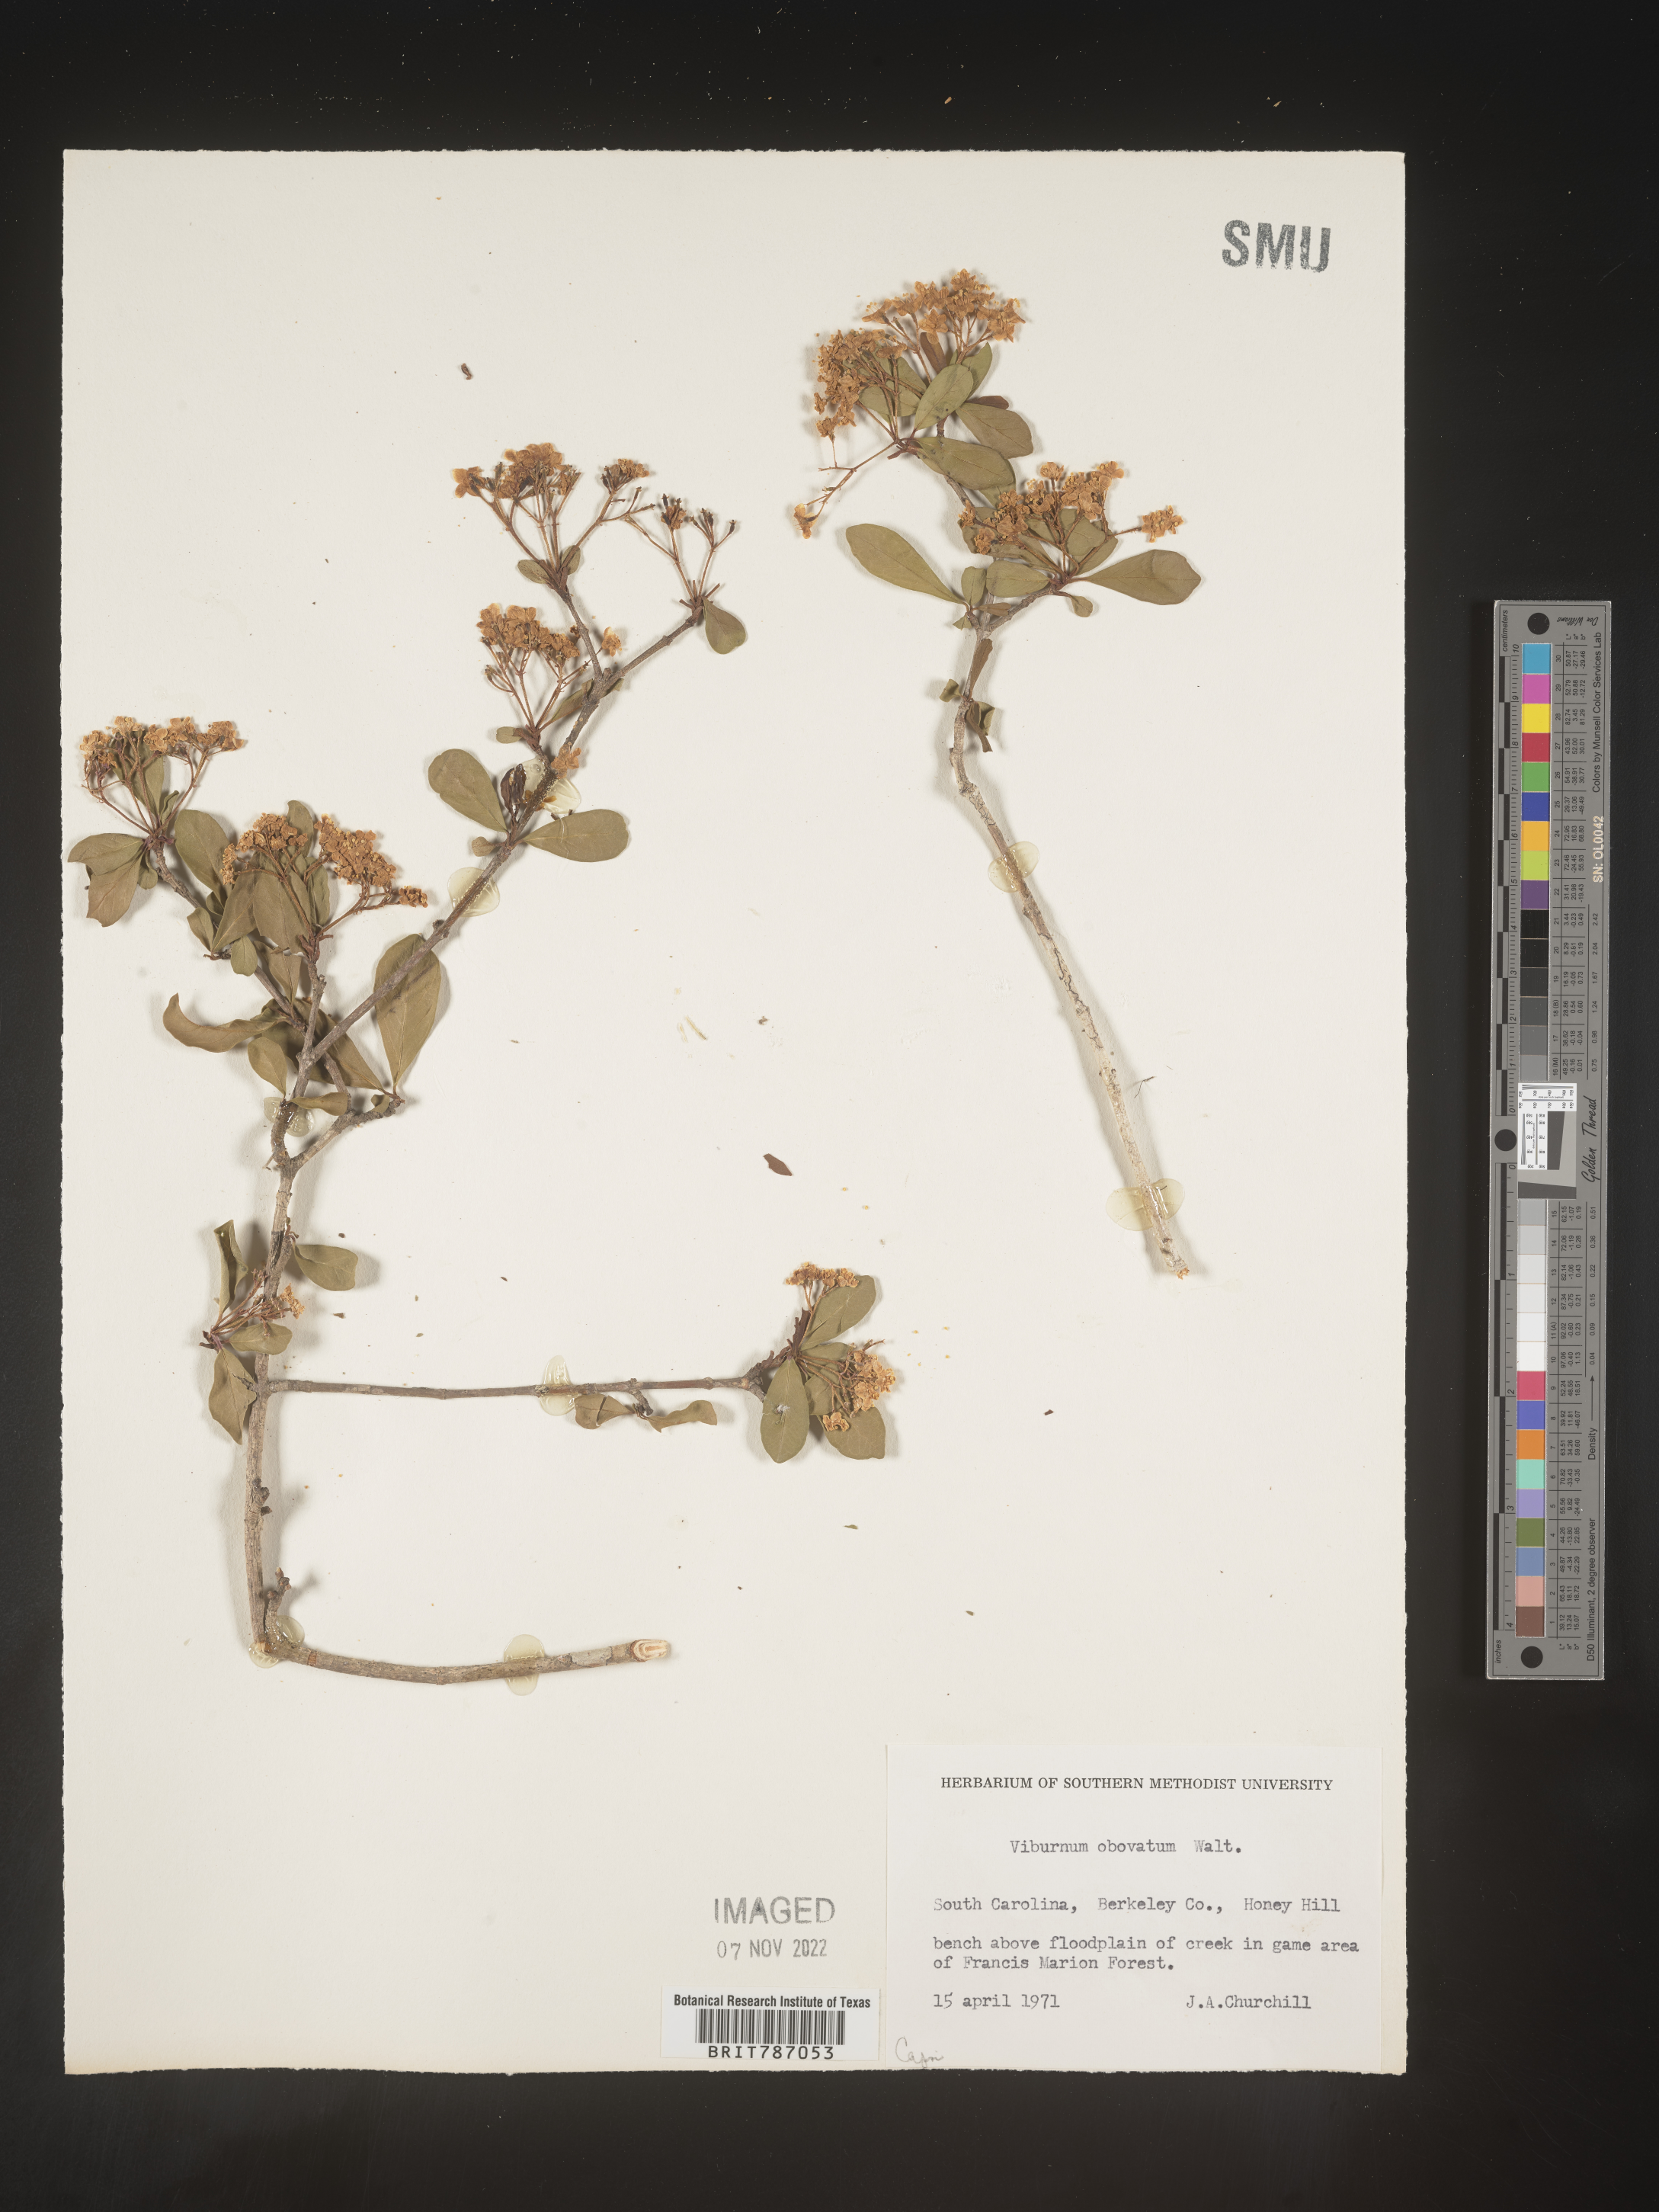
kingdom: Plantae
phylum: Tracheophyta
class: Magnoliopsida
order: Dipsacales
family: Viburnaceae
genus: Viburnum
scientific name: Viburnum obovatum
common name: Walter's viburnum
